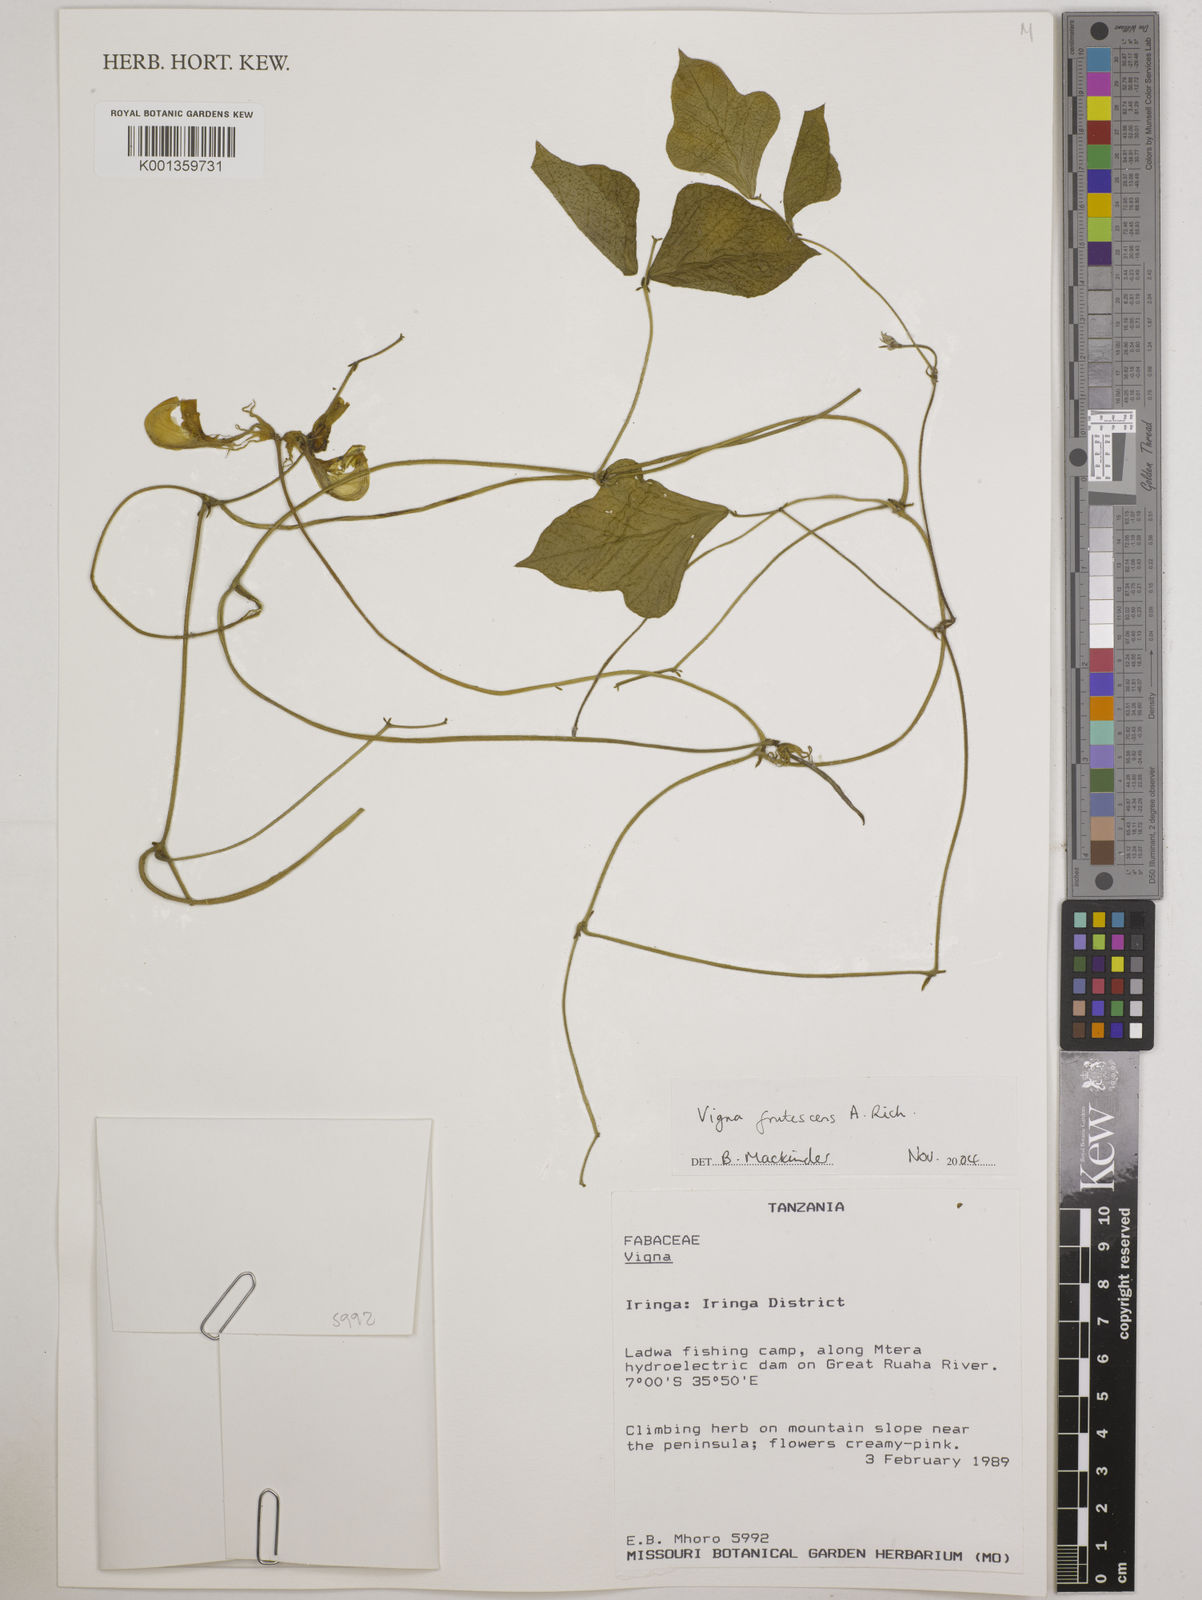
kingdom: Plantae
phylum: Tracheophyta
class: Magnoliopsida
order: Fabales
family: Fabaceae
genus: Vigna
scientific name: Vigna frutescens
